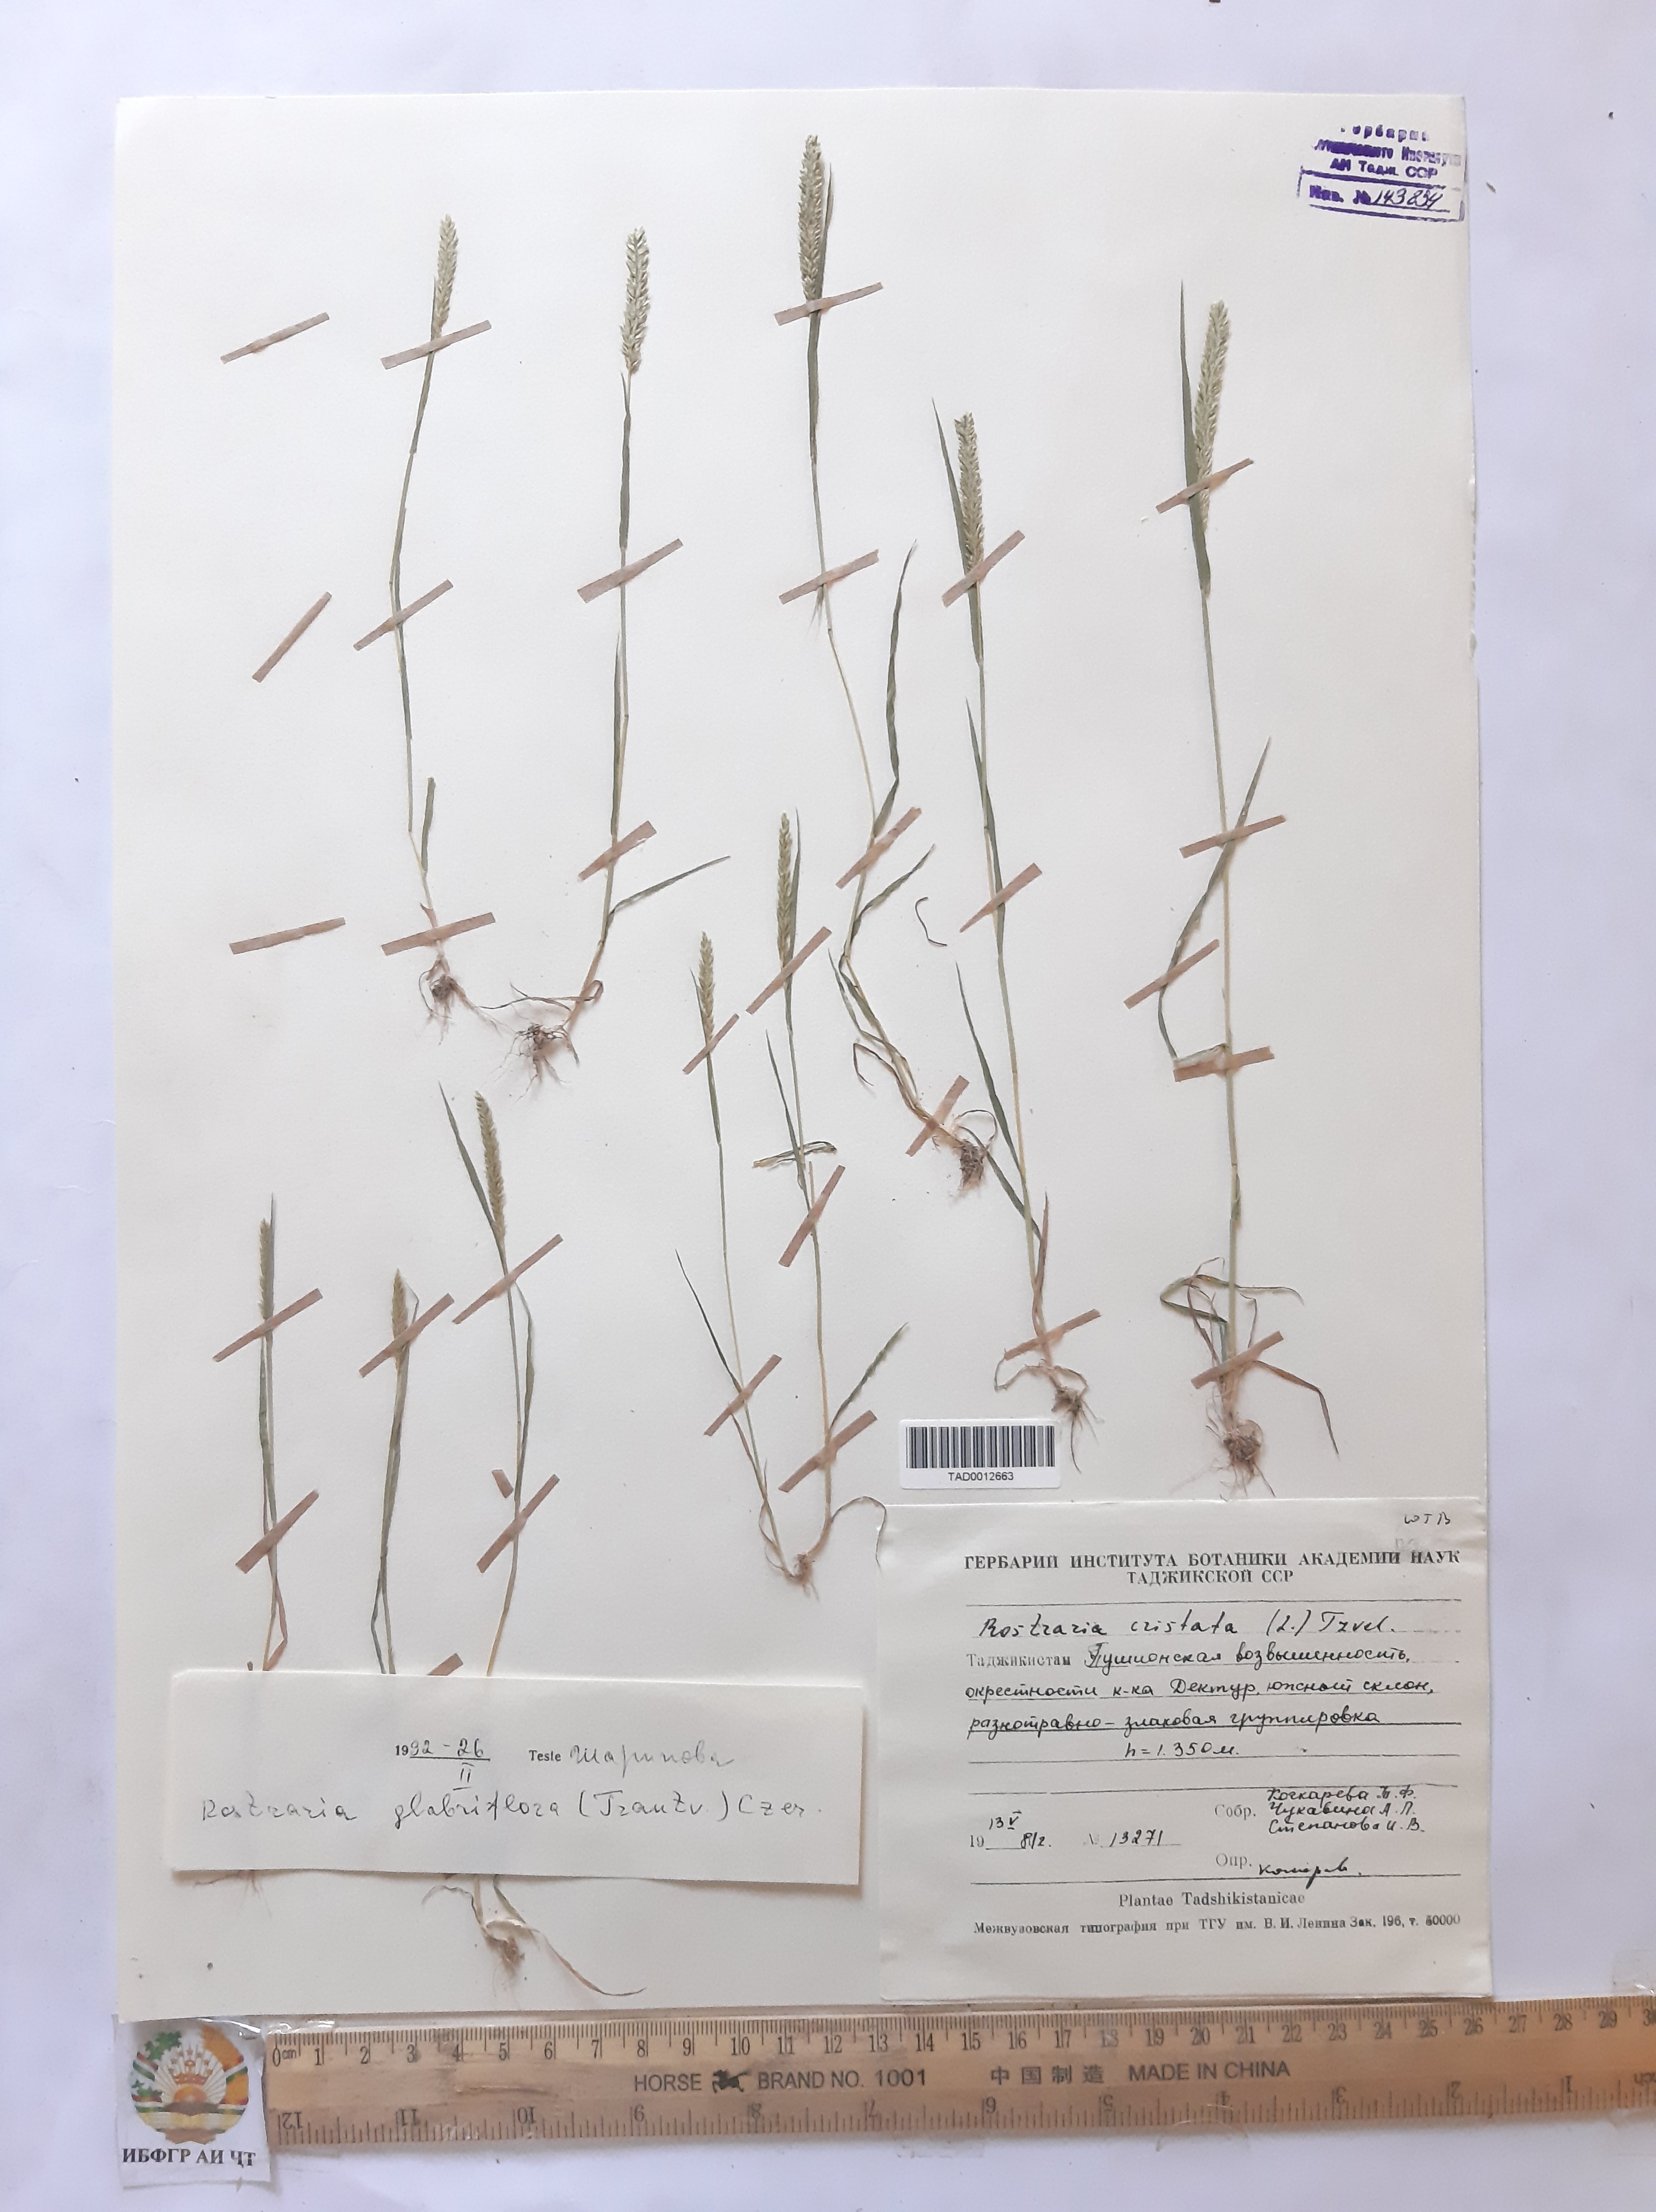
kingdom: Plantae
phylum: Tracheophyta
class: Liliopsida
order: Poales
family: Poaceae
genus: Rostraria
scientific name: Rostraria cristata
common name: Mediterranean hair-grass
